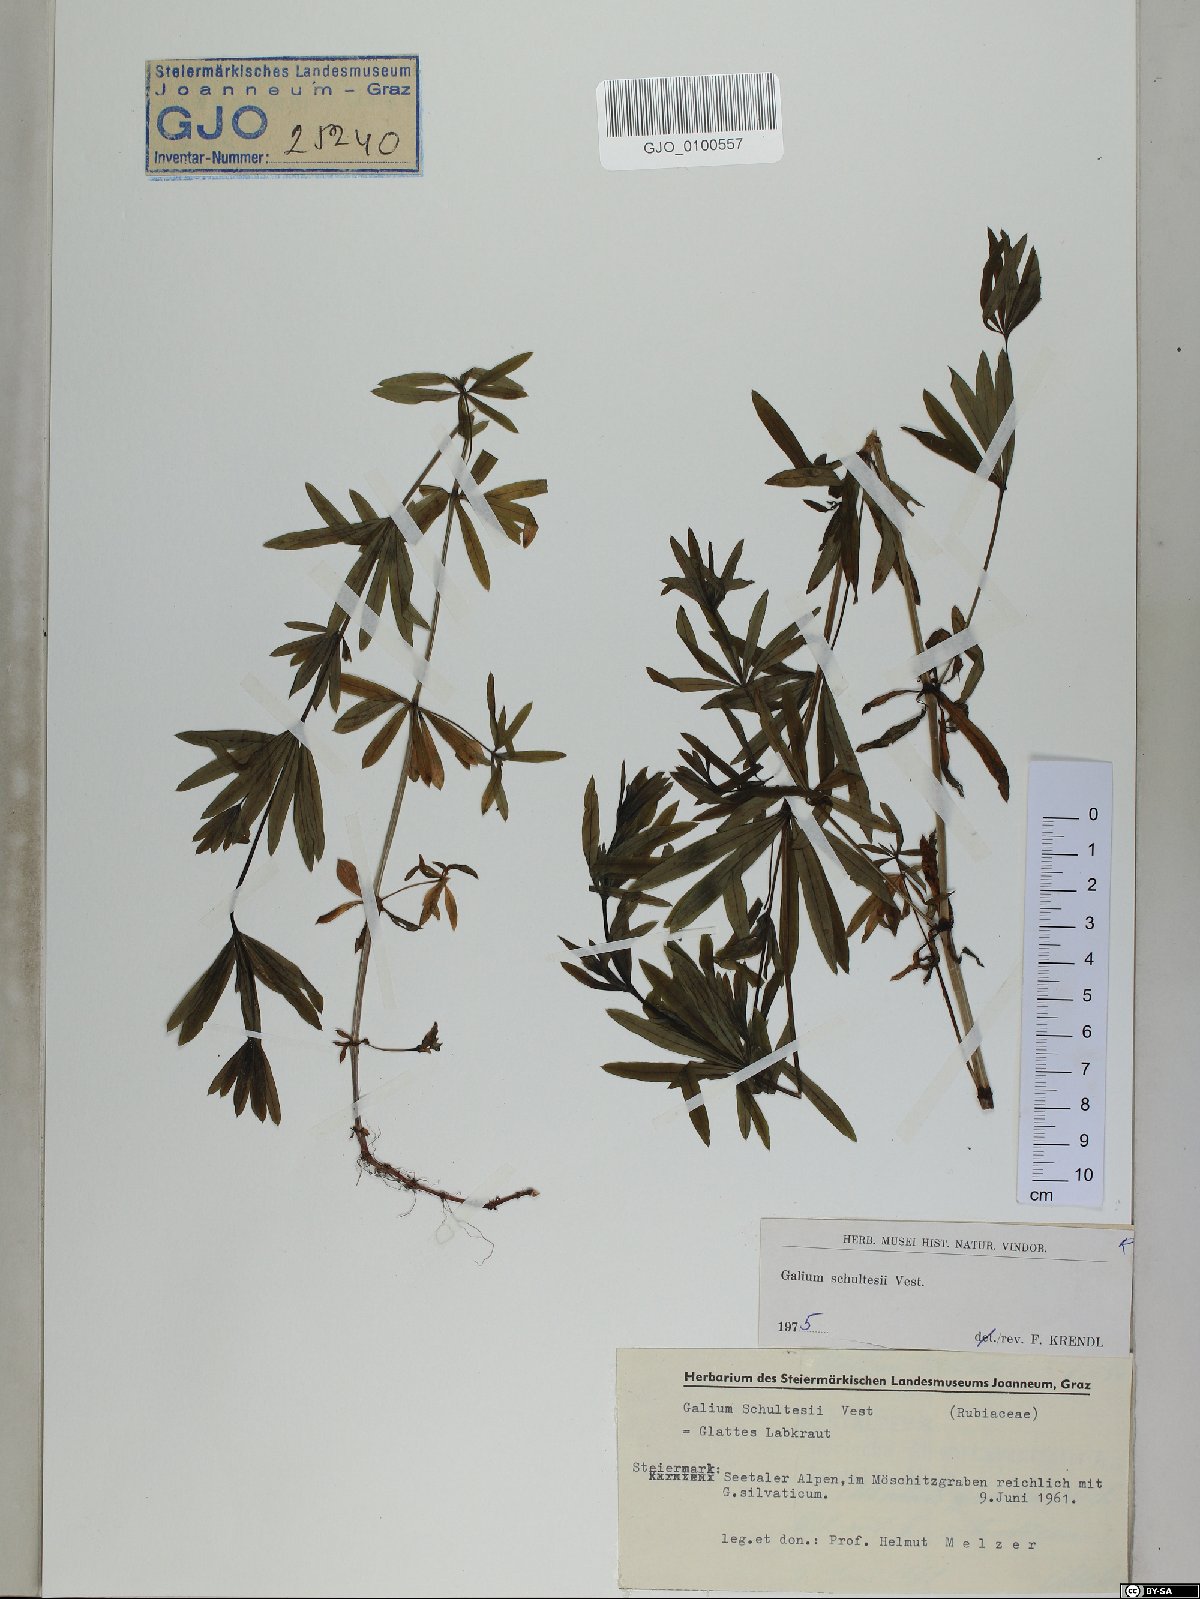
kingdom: Plantae
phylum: Tracheophyta
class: Magnoliopsida
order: Gentianales
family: Rubiaceae
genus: Galium
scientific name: Galium intermedium
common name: Bedstraw
